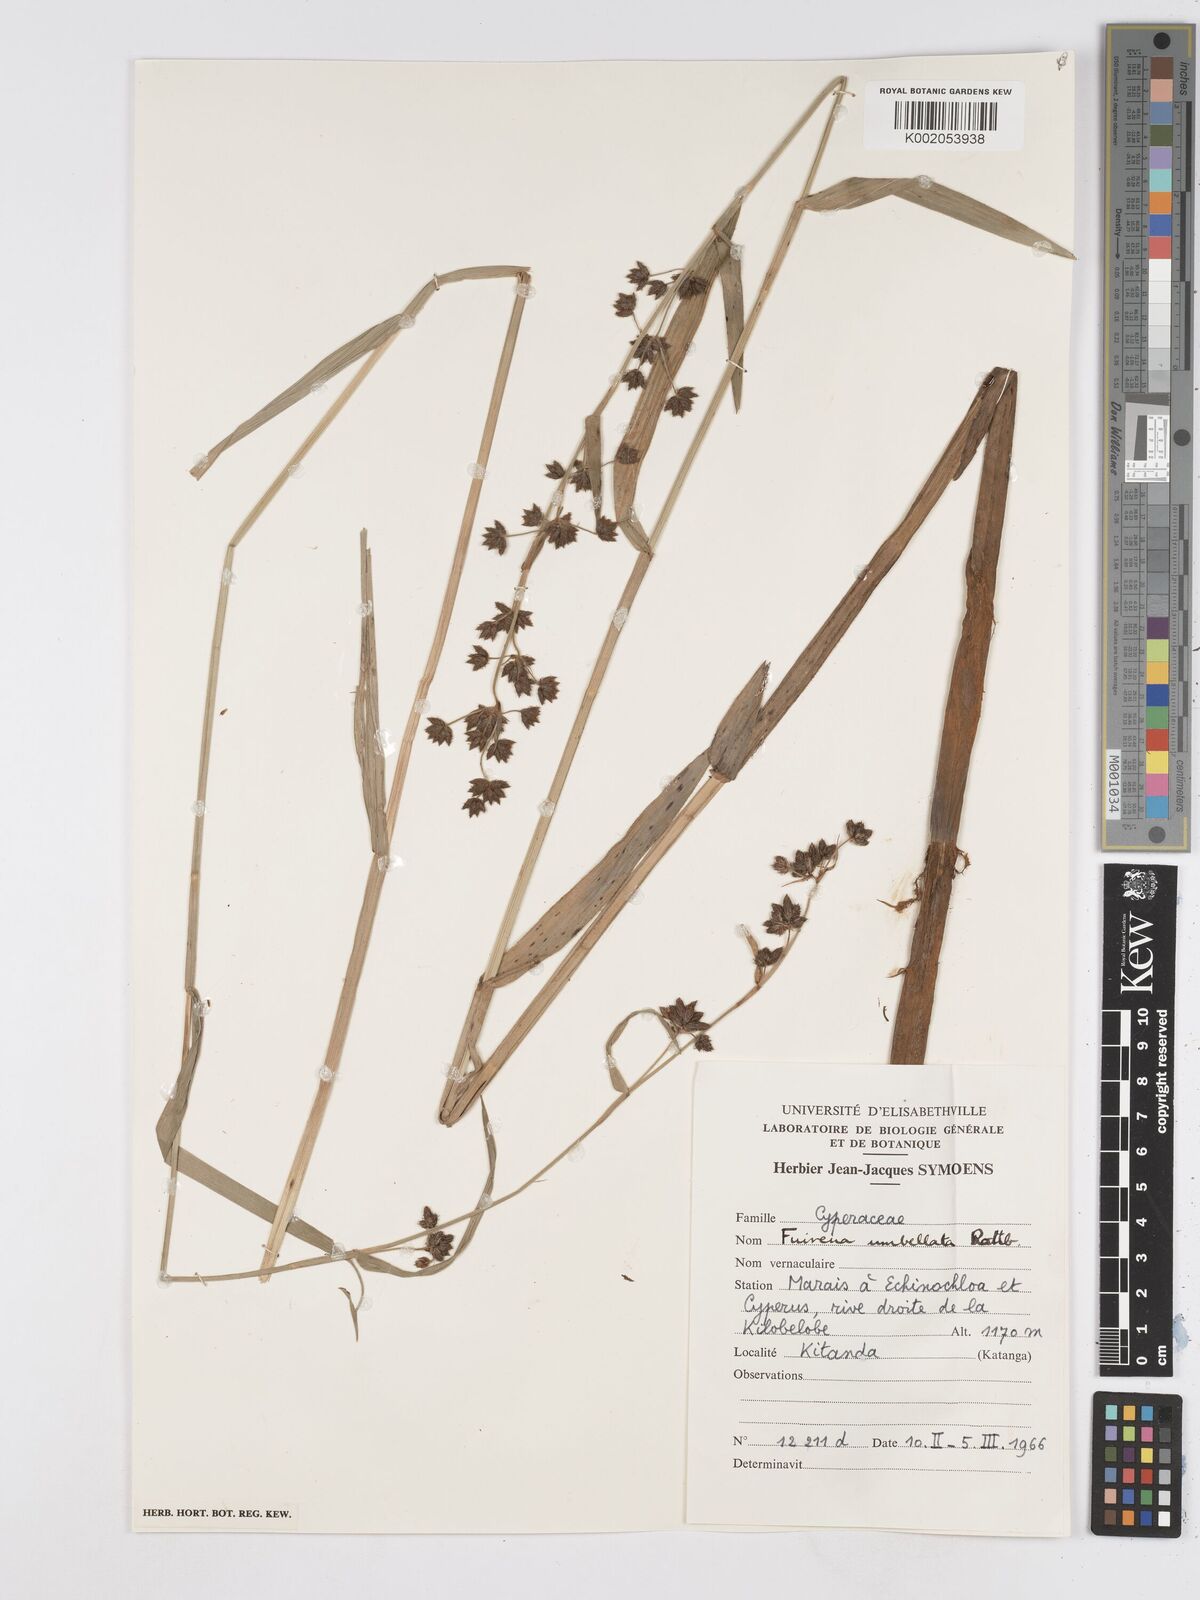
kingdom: Plantae
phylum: Tracheophyta
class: Liliopsida
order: Poales
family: Cyperaceae
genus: Fuirena
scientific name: Fuirena umbellata
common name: Yefen
